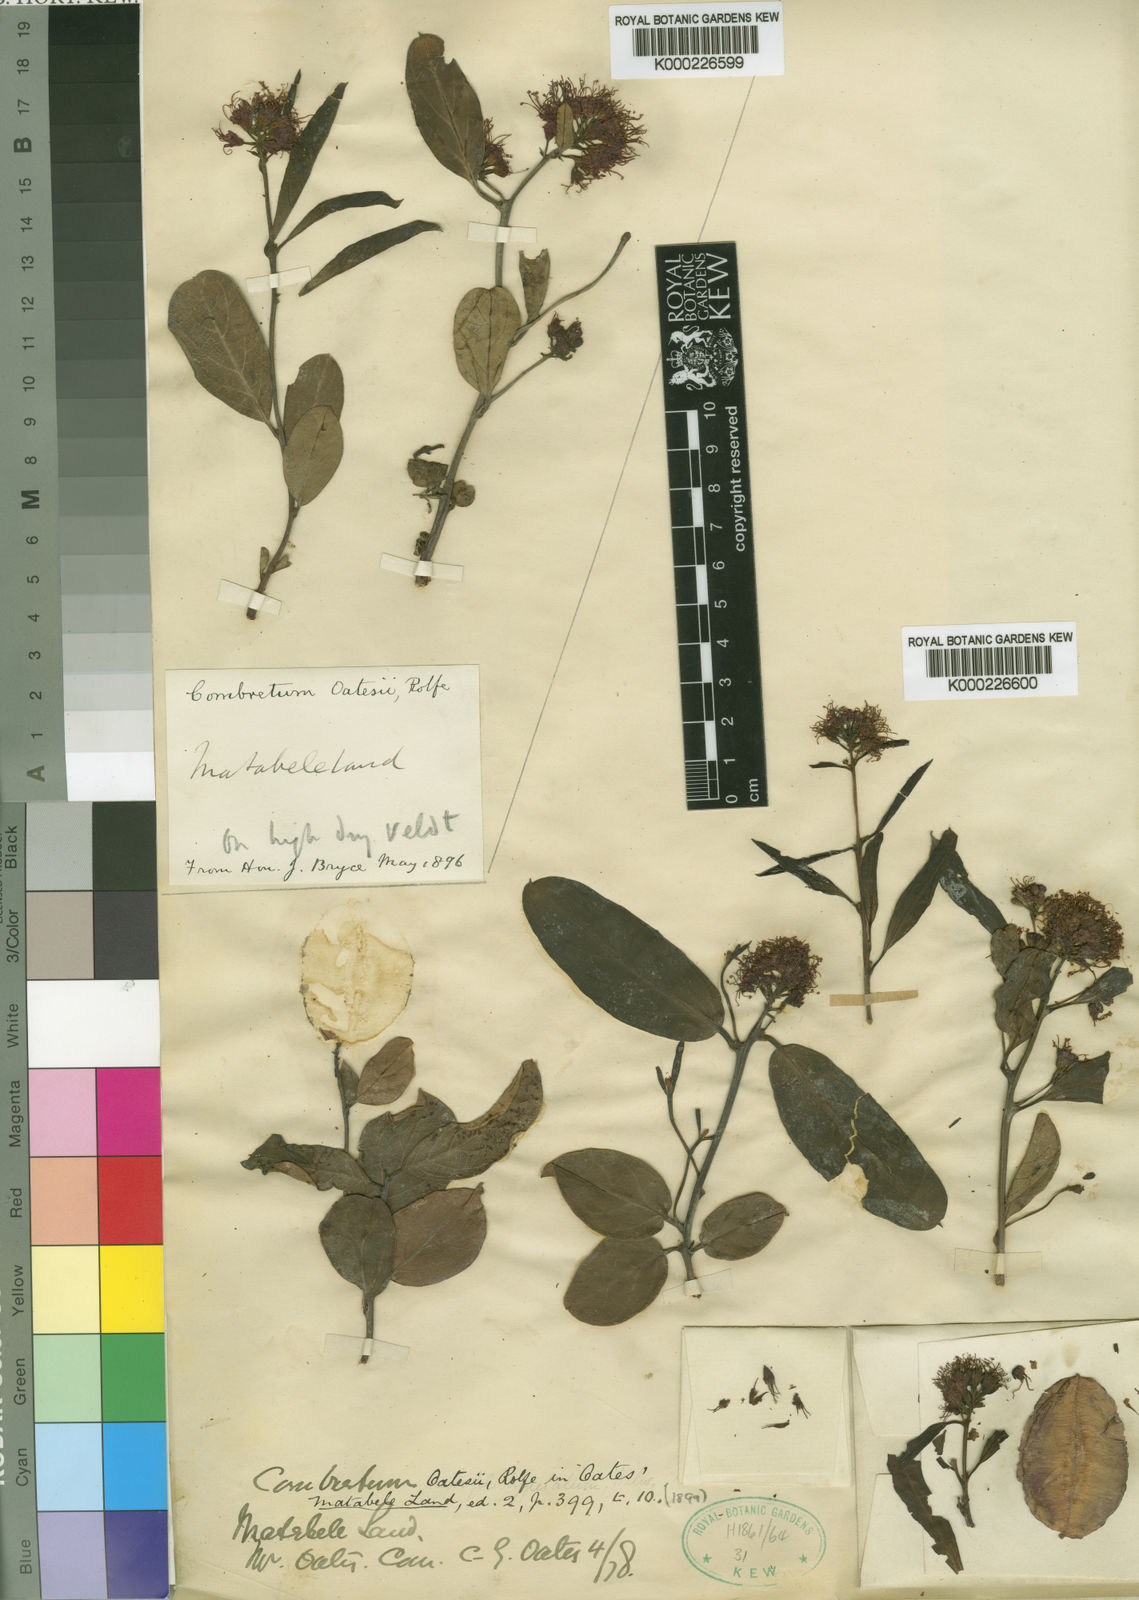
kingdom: Plantae
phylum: Tracheophyta
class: Magnoliopsida
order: Myrtales
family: Combretaceae
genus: Combretum
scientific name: Combretum oatesii
